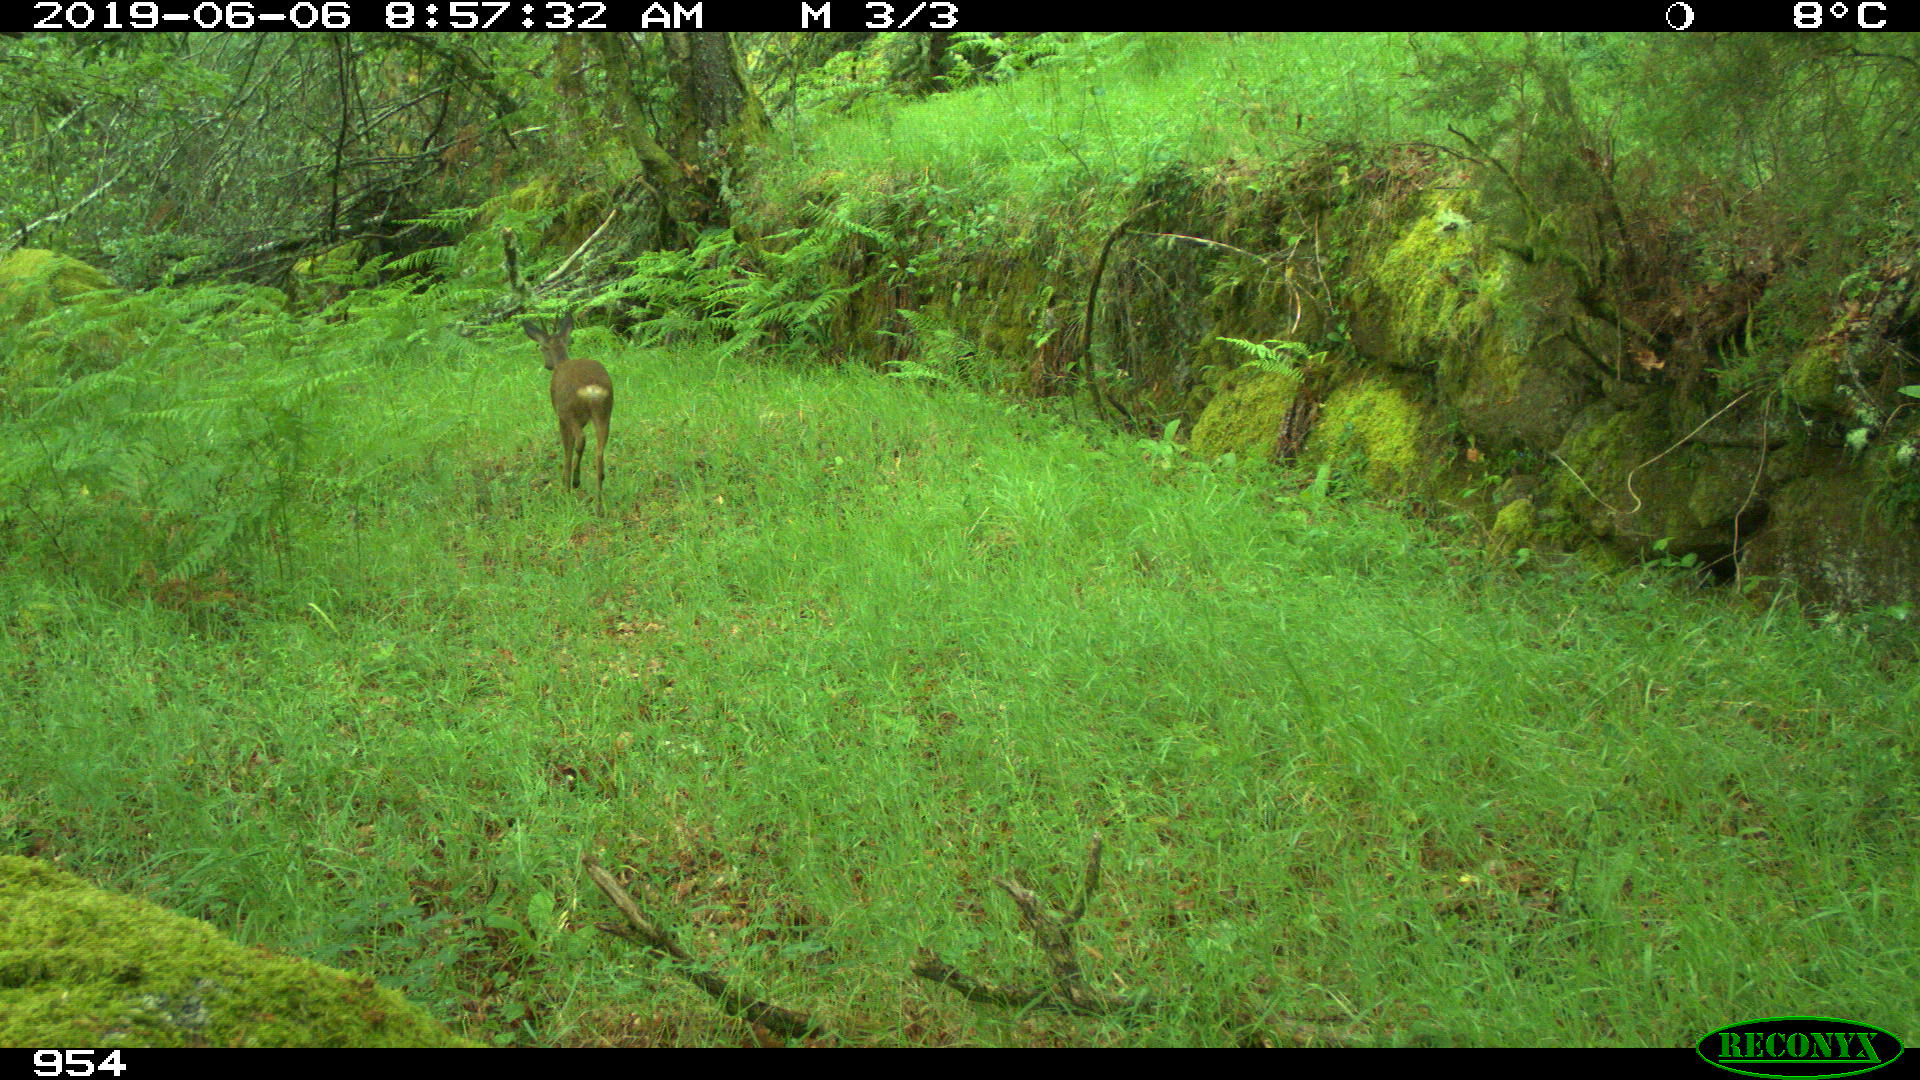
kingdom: Animalia
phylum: Chordata
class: Mammalia
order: Artiodactyla
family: Cervidae
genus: Capreolus
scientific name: Capreolus capreolus
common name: Western roe deer
